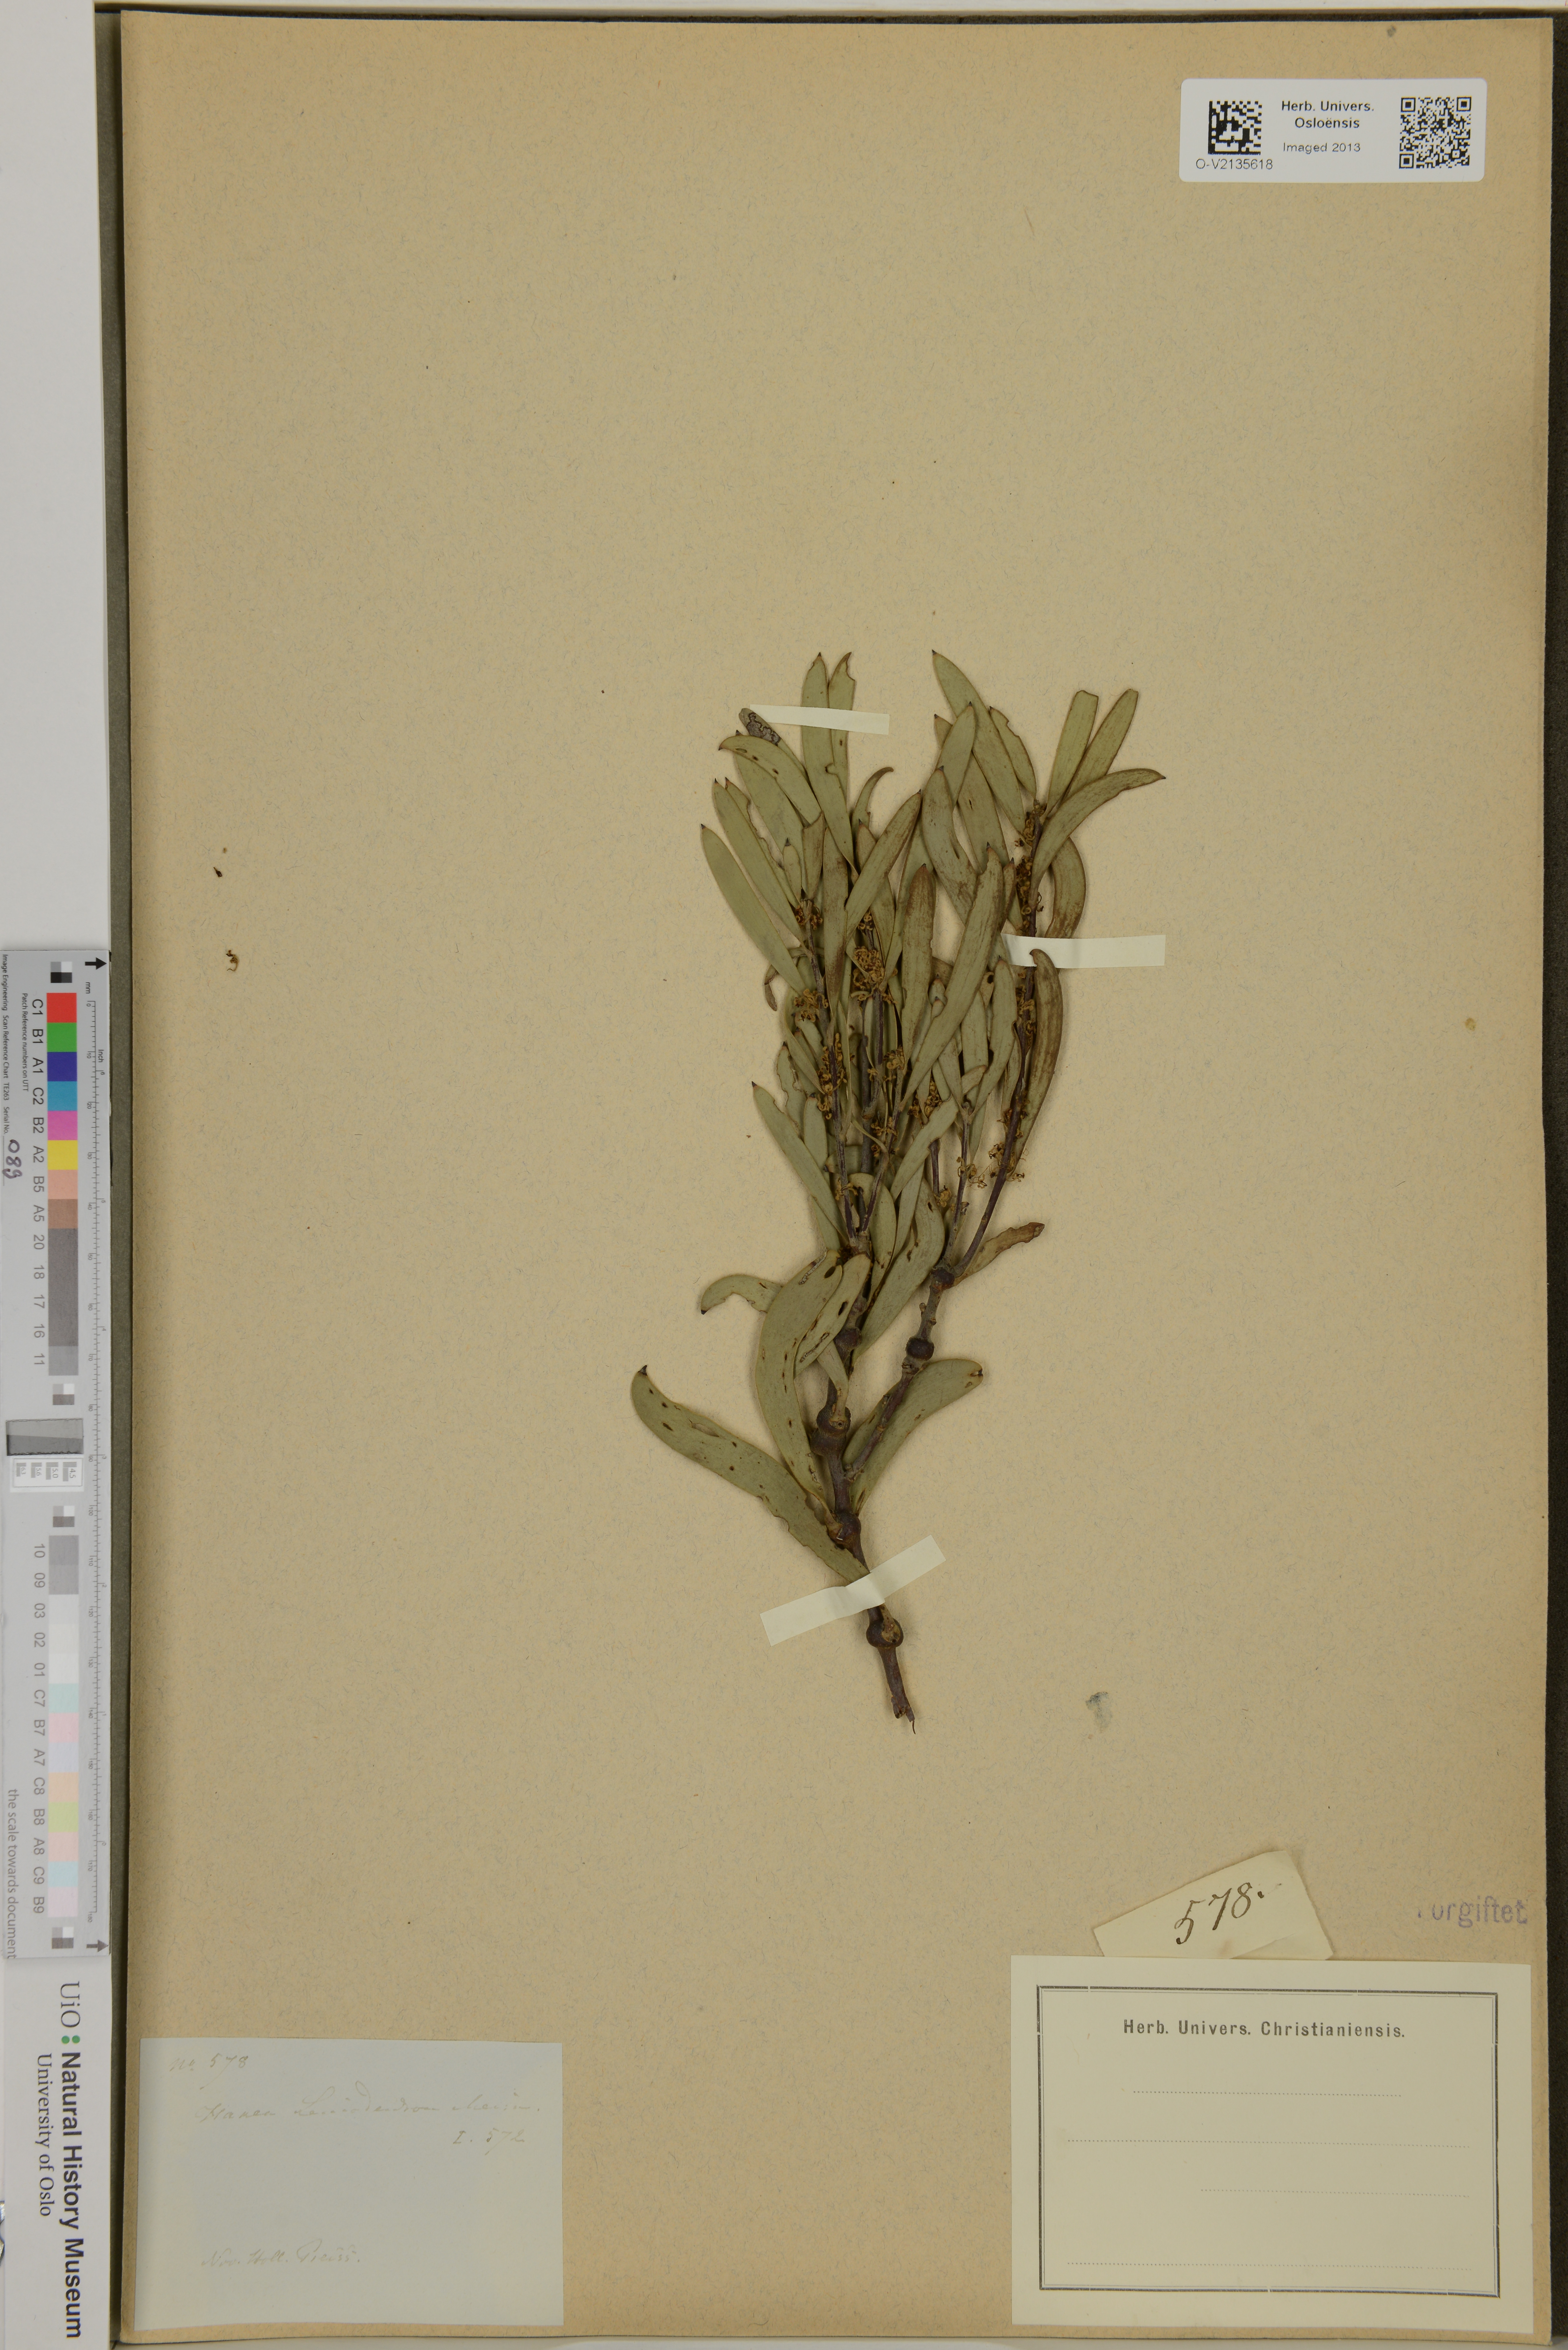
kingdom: Plantae
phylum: Tracheophyta
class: Magnoliopsida
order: Proteales
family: Proteaceae
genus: Hakea
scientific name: Hakea incrassata
